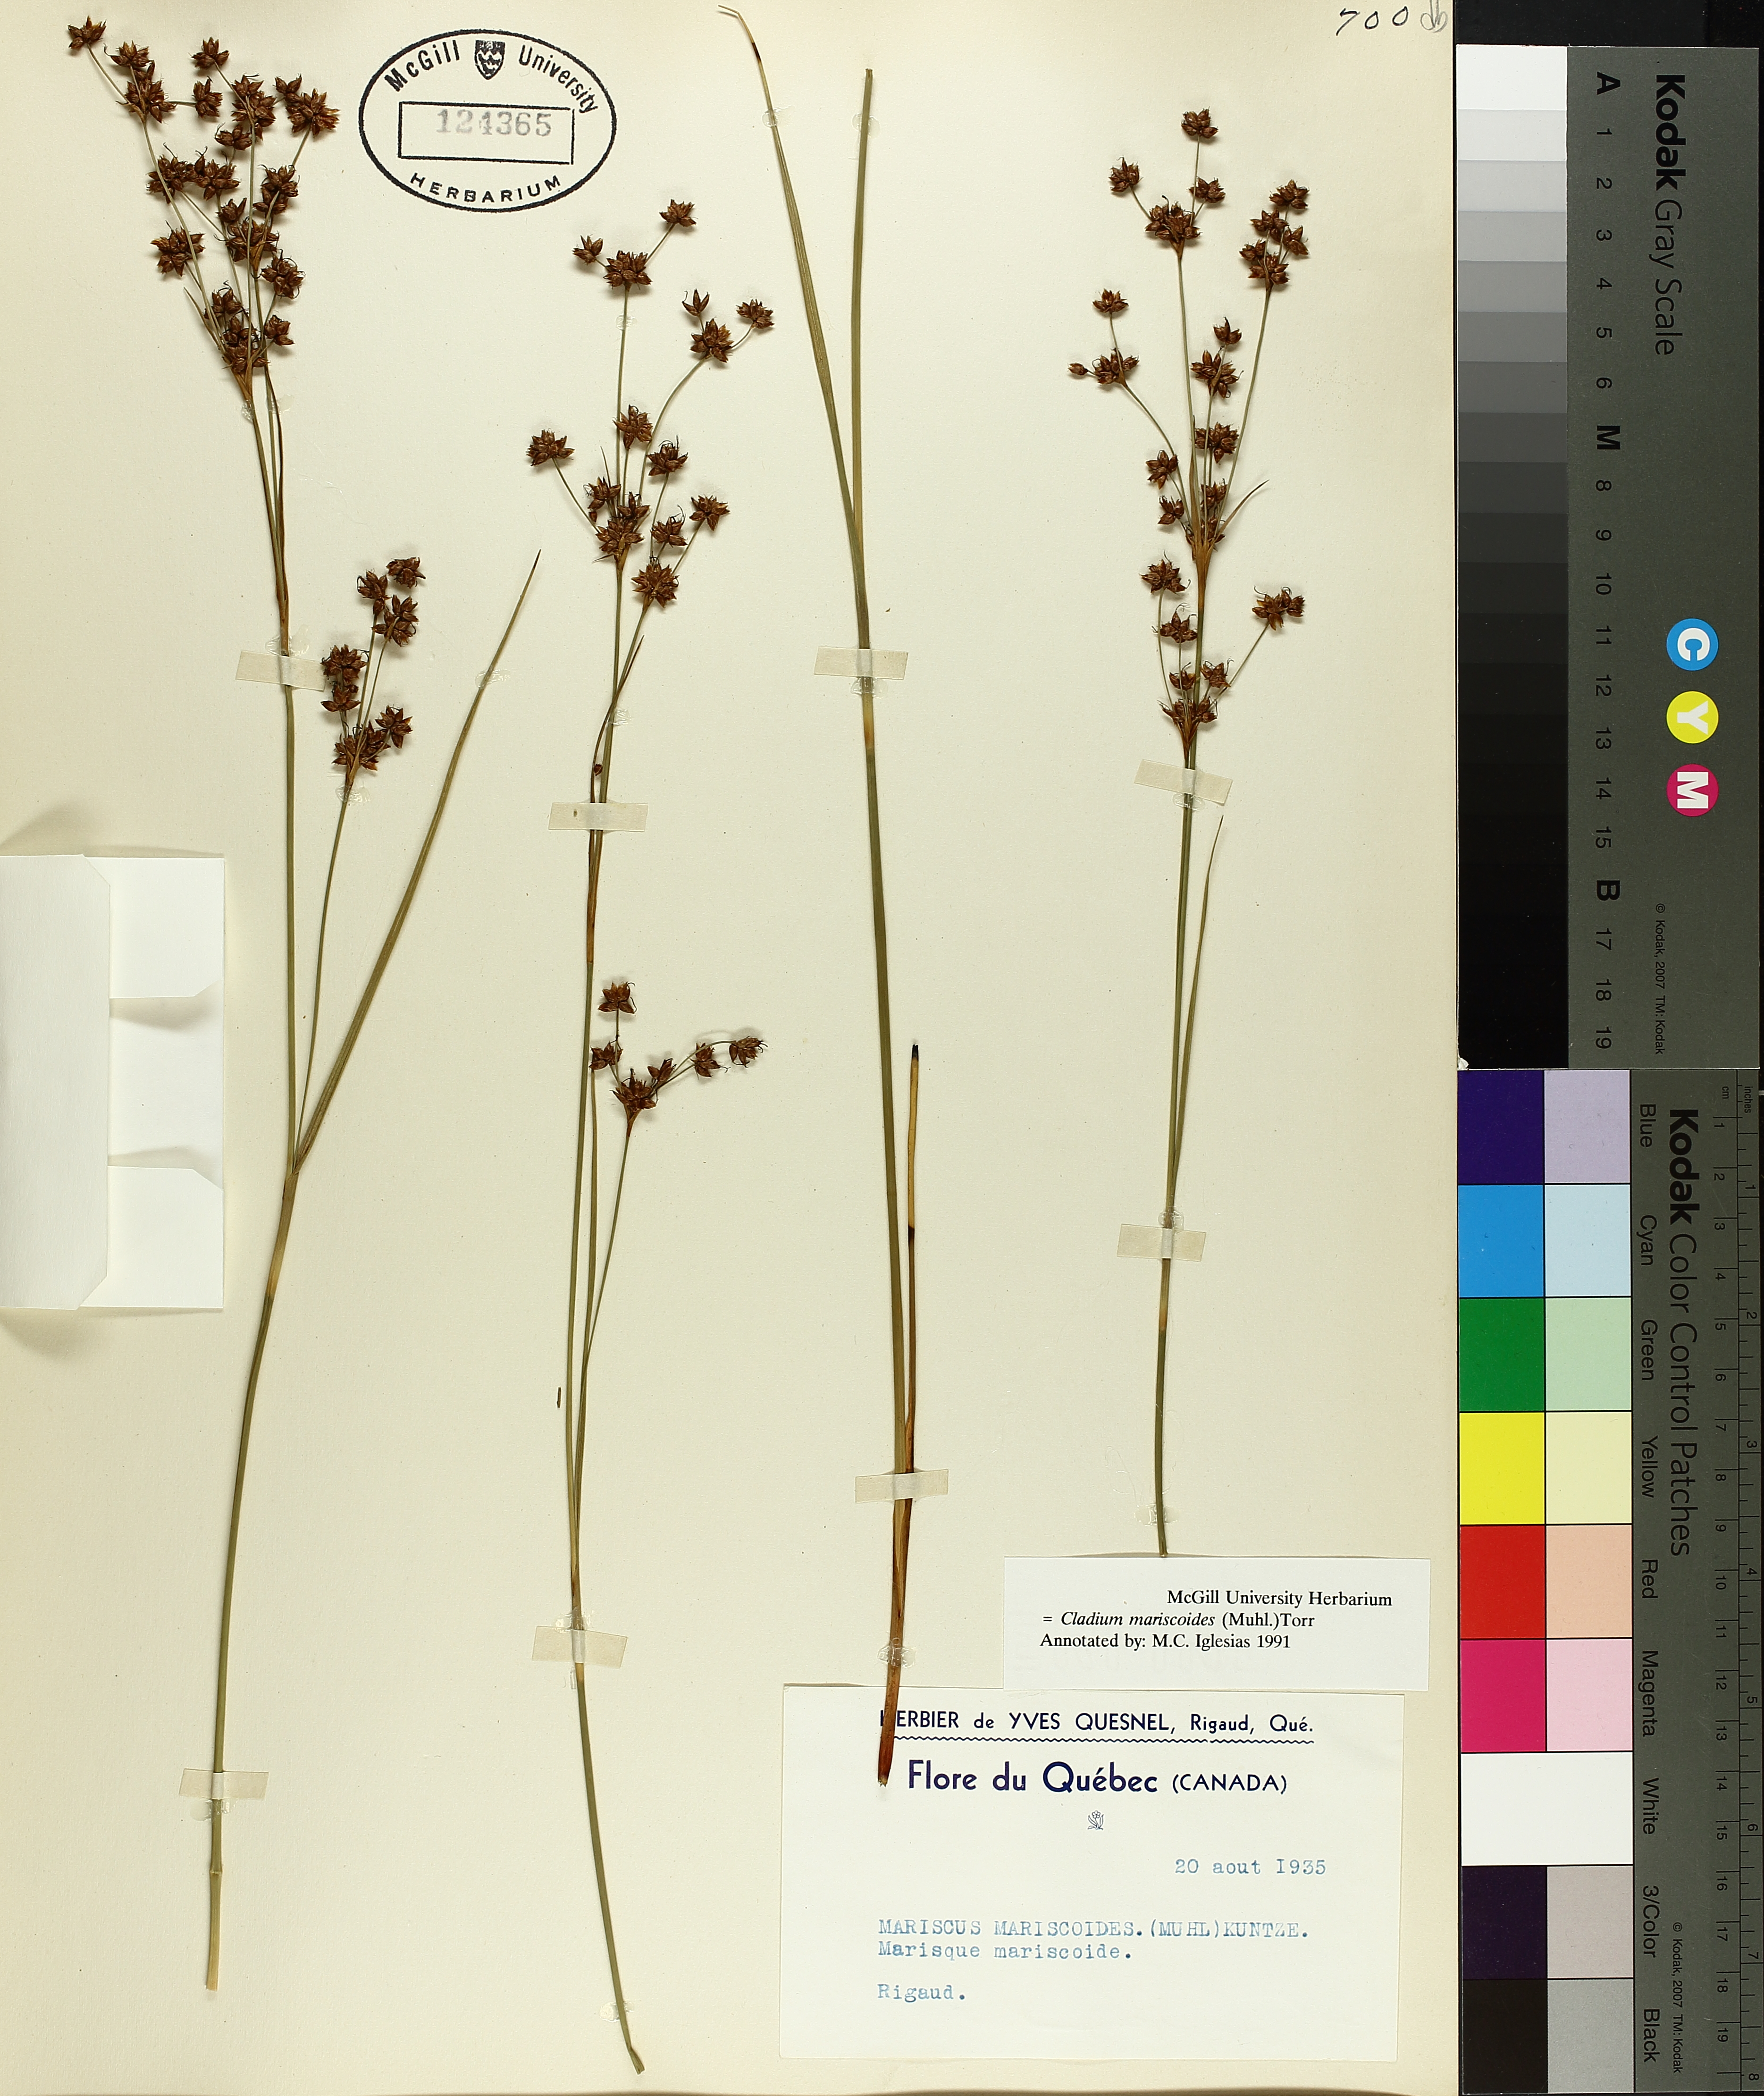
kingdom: Plantae
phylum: Tracheophyta
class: Liliopsida
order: Poales
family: Cyperaceae
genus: Cladium
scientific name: Cladium mariscoides
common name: Smooth sawgrass
